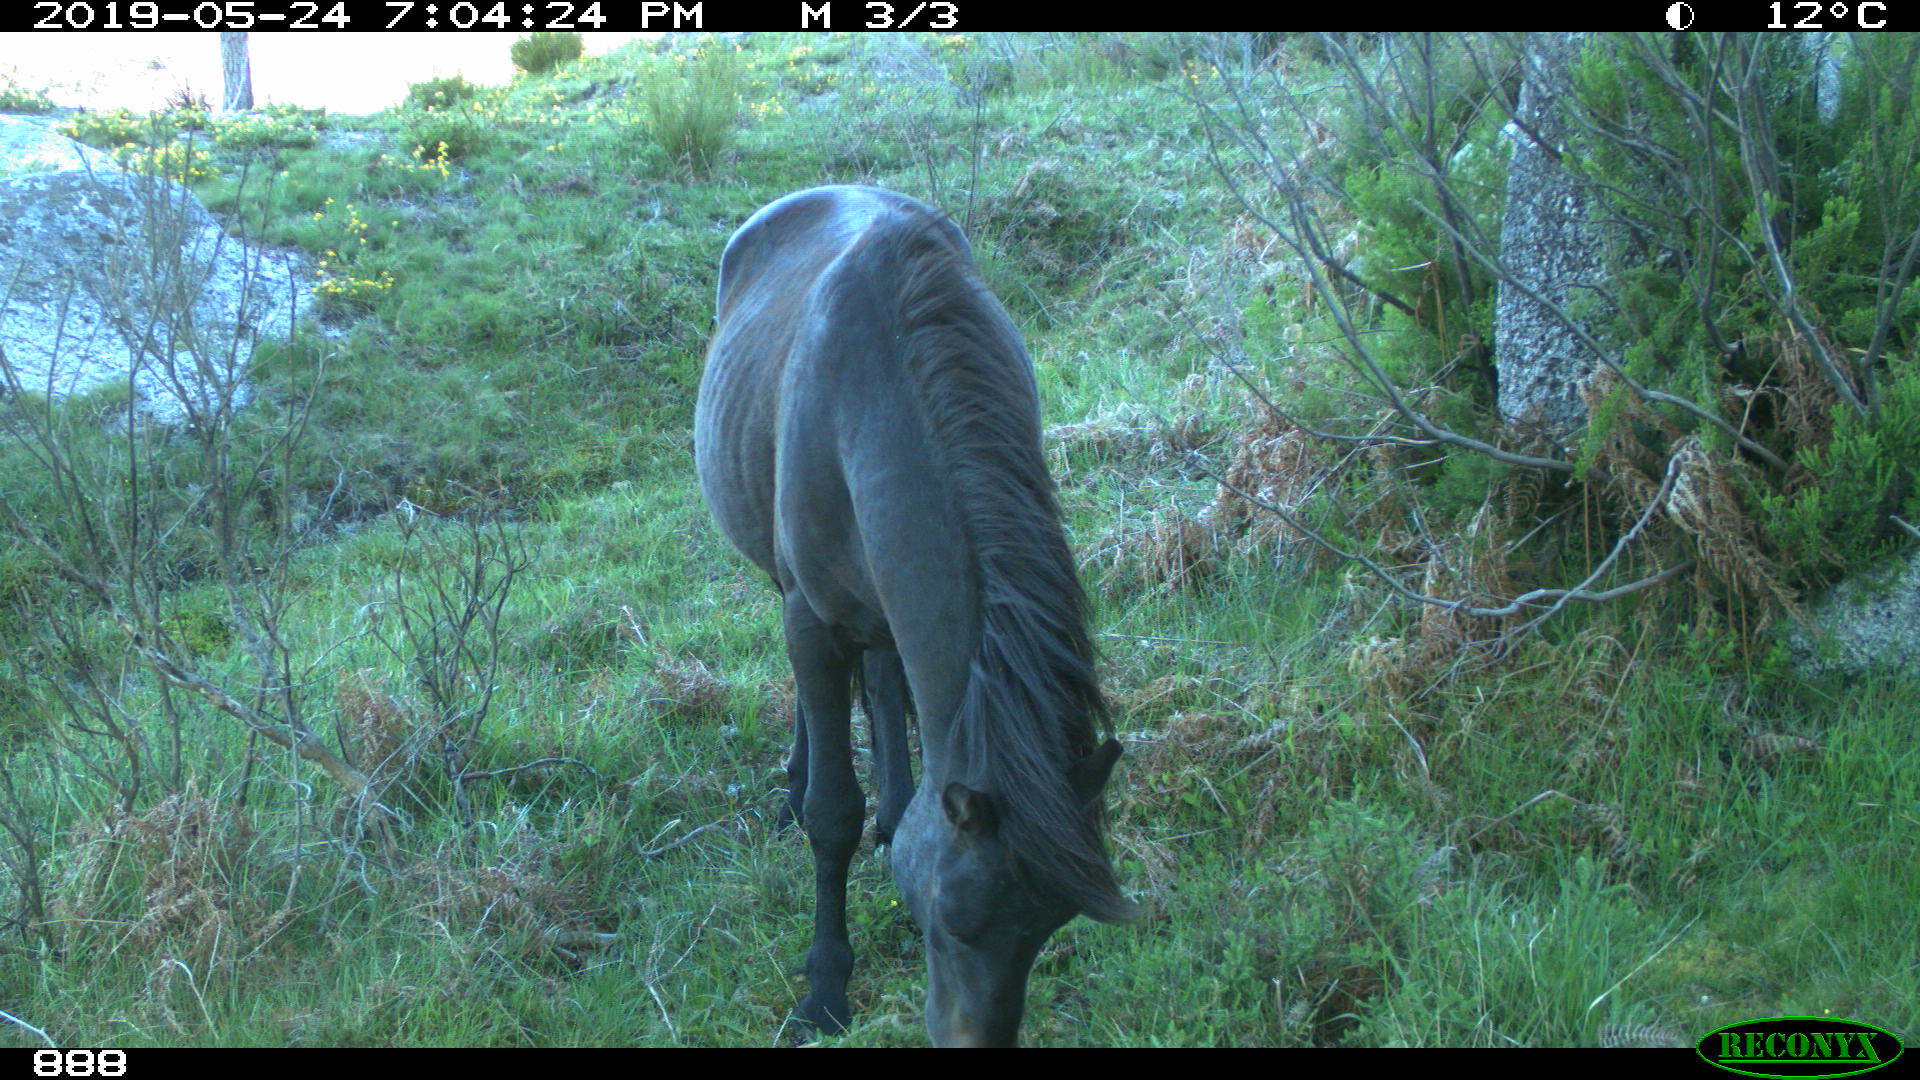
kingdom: Animalia
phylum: Chordata
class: Mammalia
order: Perissodactyla
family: Equidae
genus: Equus
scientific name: Equus caballus
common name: Horse
